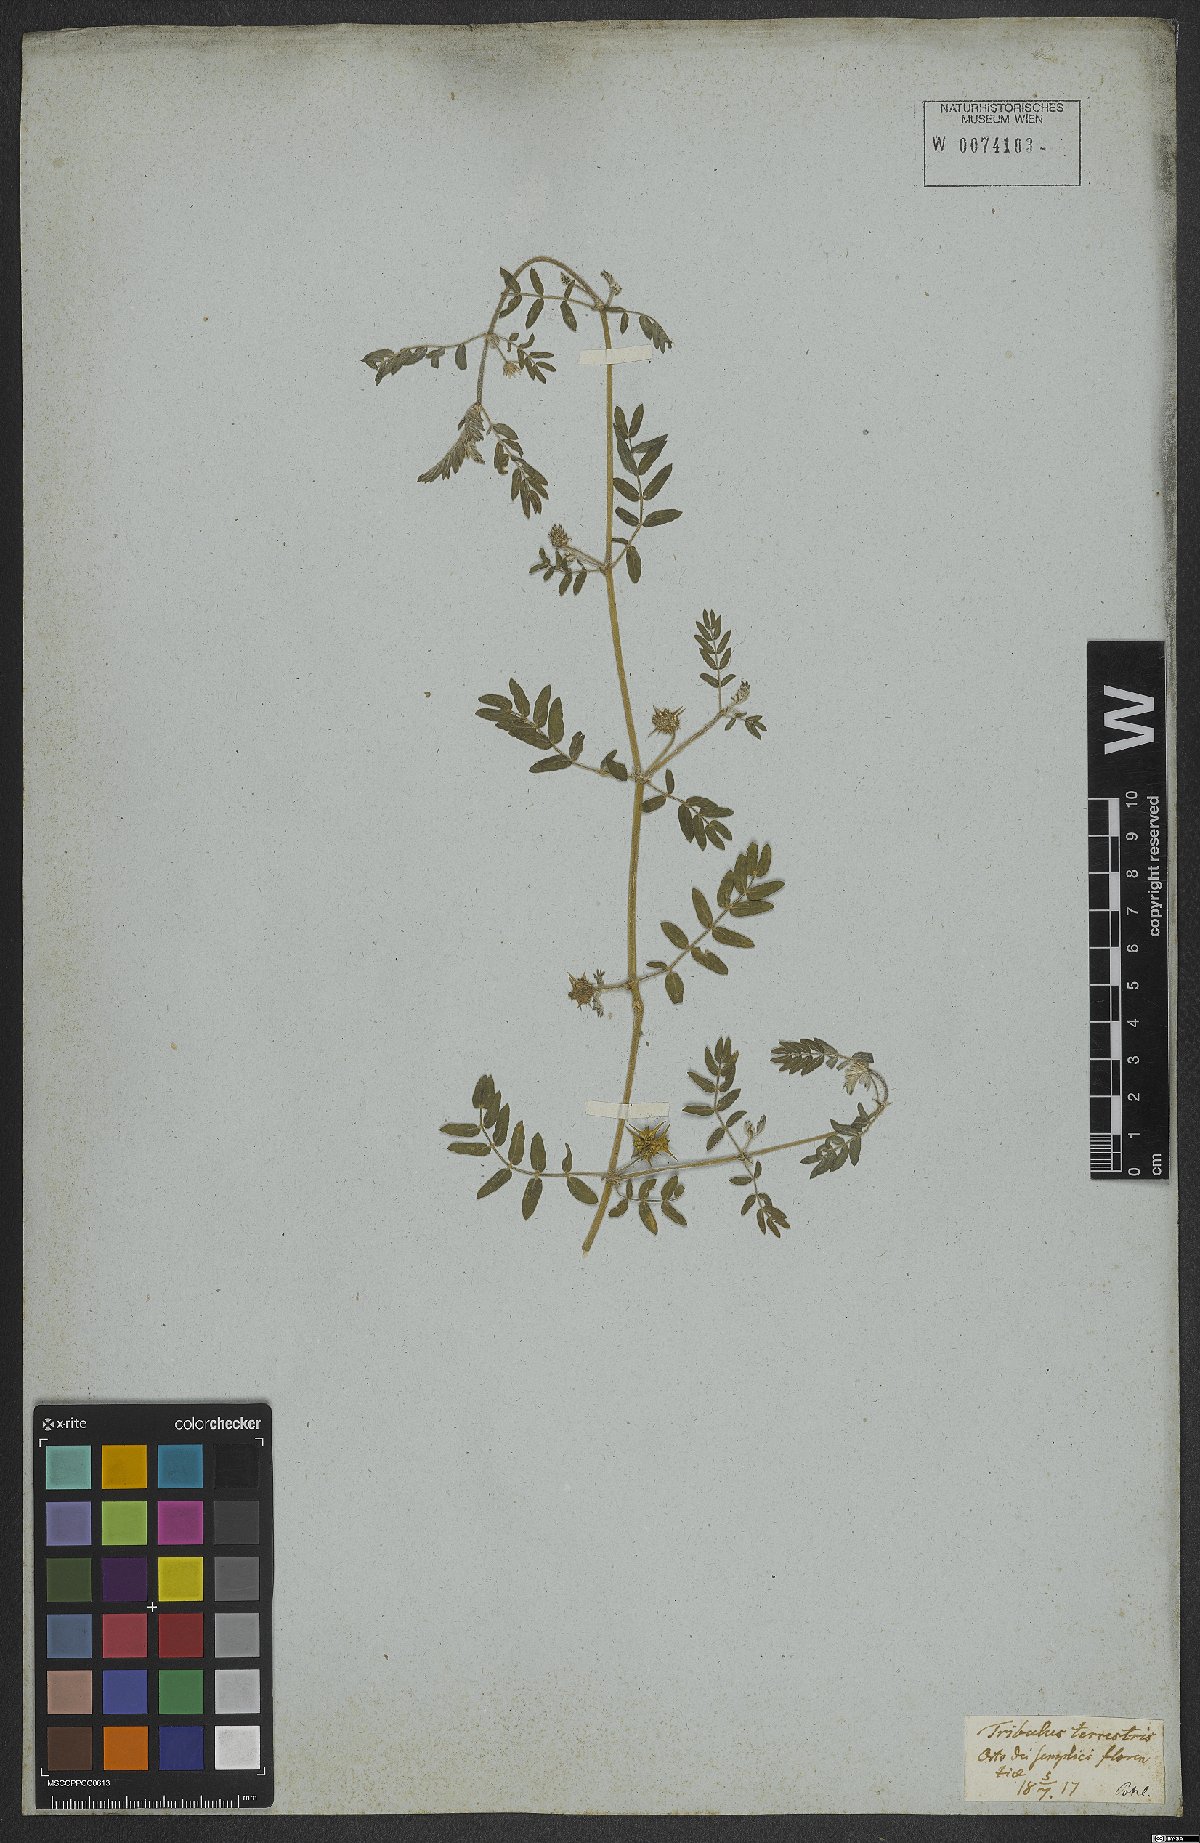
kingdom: Plantae
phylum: Tracheophyta
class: Magnoliopsida
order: Zygophyllales
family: Zygophyllaceae
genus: Tribulus
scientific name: Tribulus terrestris
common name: Puncturevine
